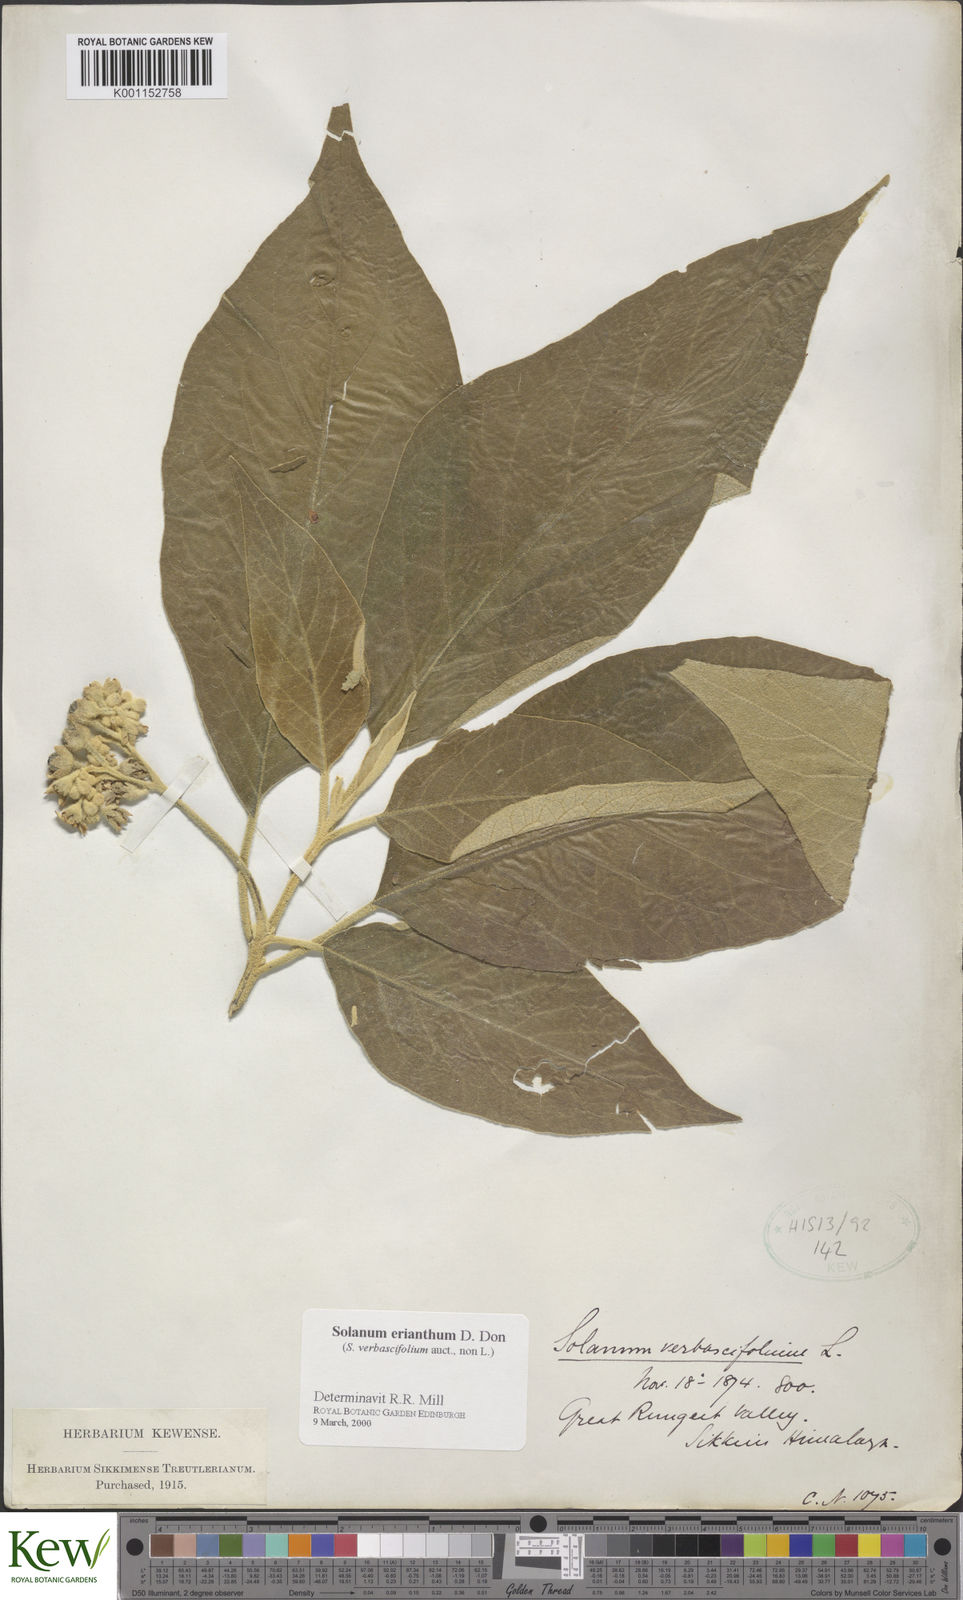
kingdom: Plantae
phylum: Tracheophyta
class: Magnoliopsida
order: Solanales
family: Solanaceae
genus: Solanum
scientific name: Solanum erianthum
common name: Tobacco-tree
